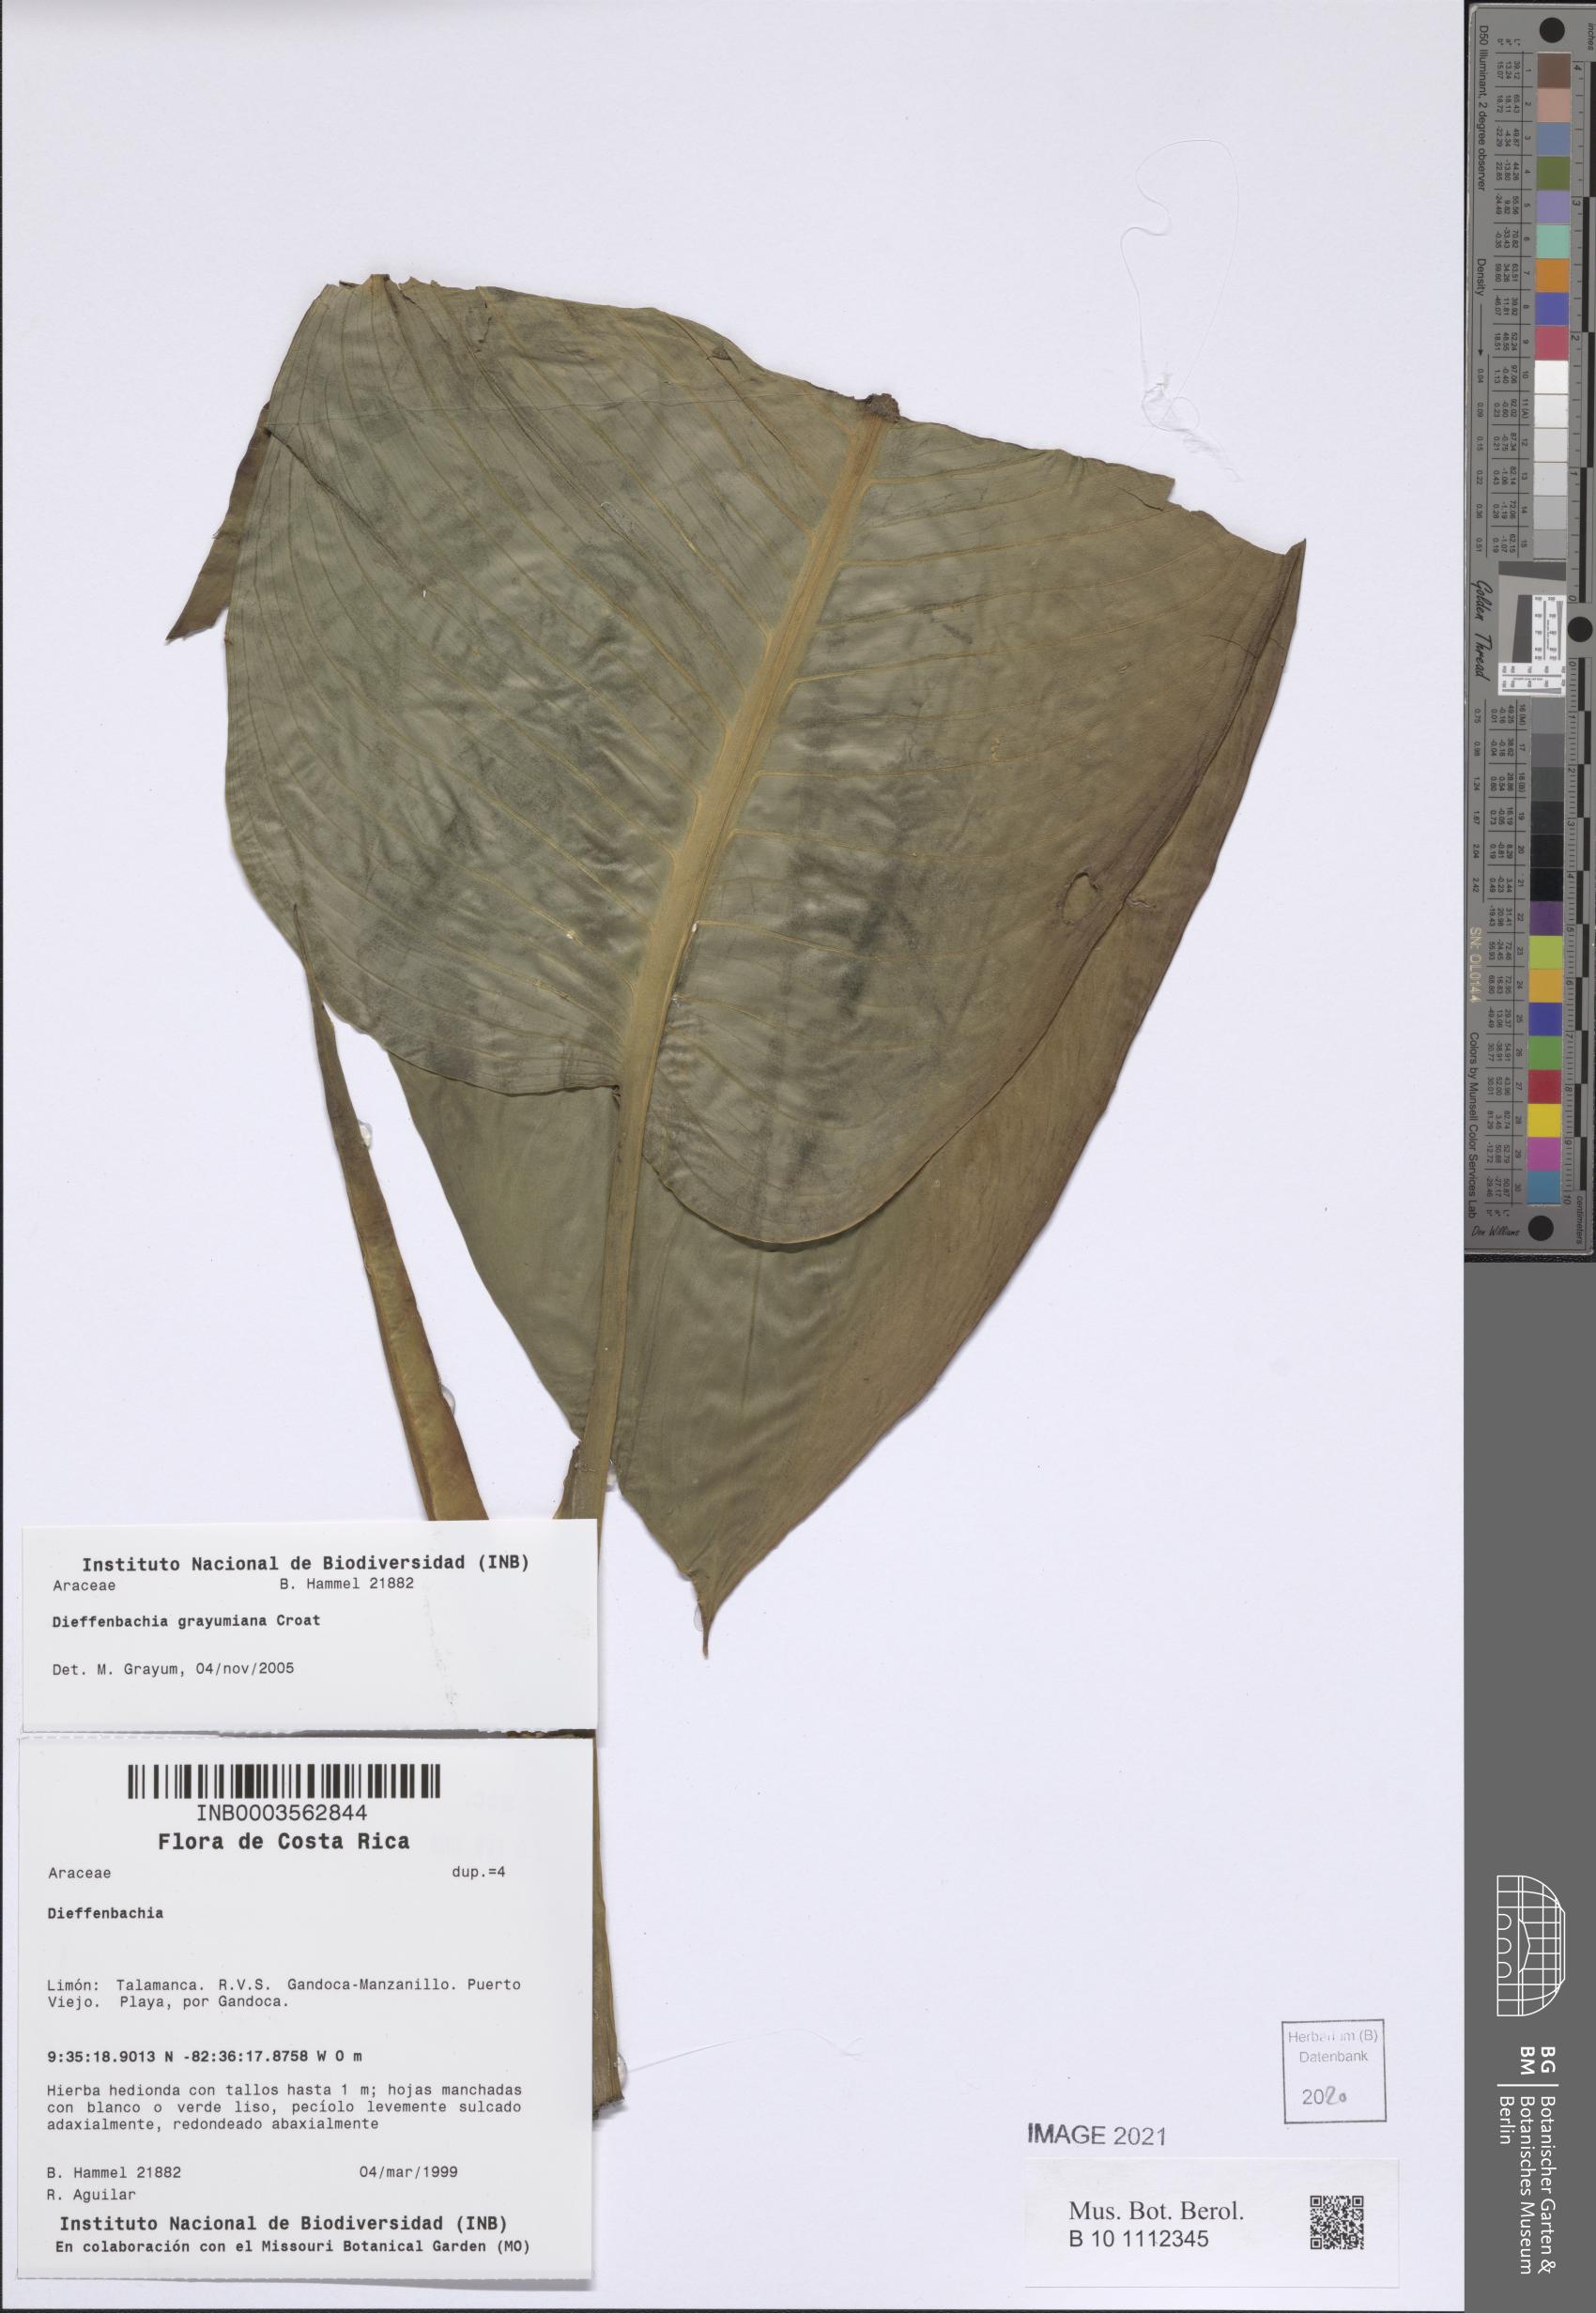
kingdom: Plantae
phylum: Tracheophyta
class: Liliopsida
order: Alismatales
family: Araceae
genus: Dieffenbachia
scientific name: Dieffenbachia grayumiana
